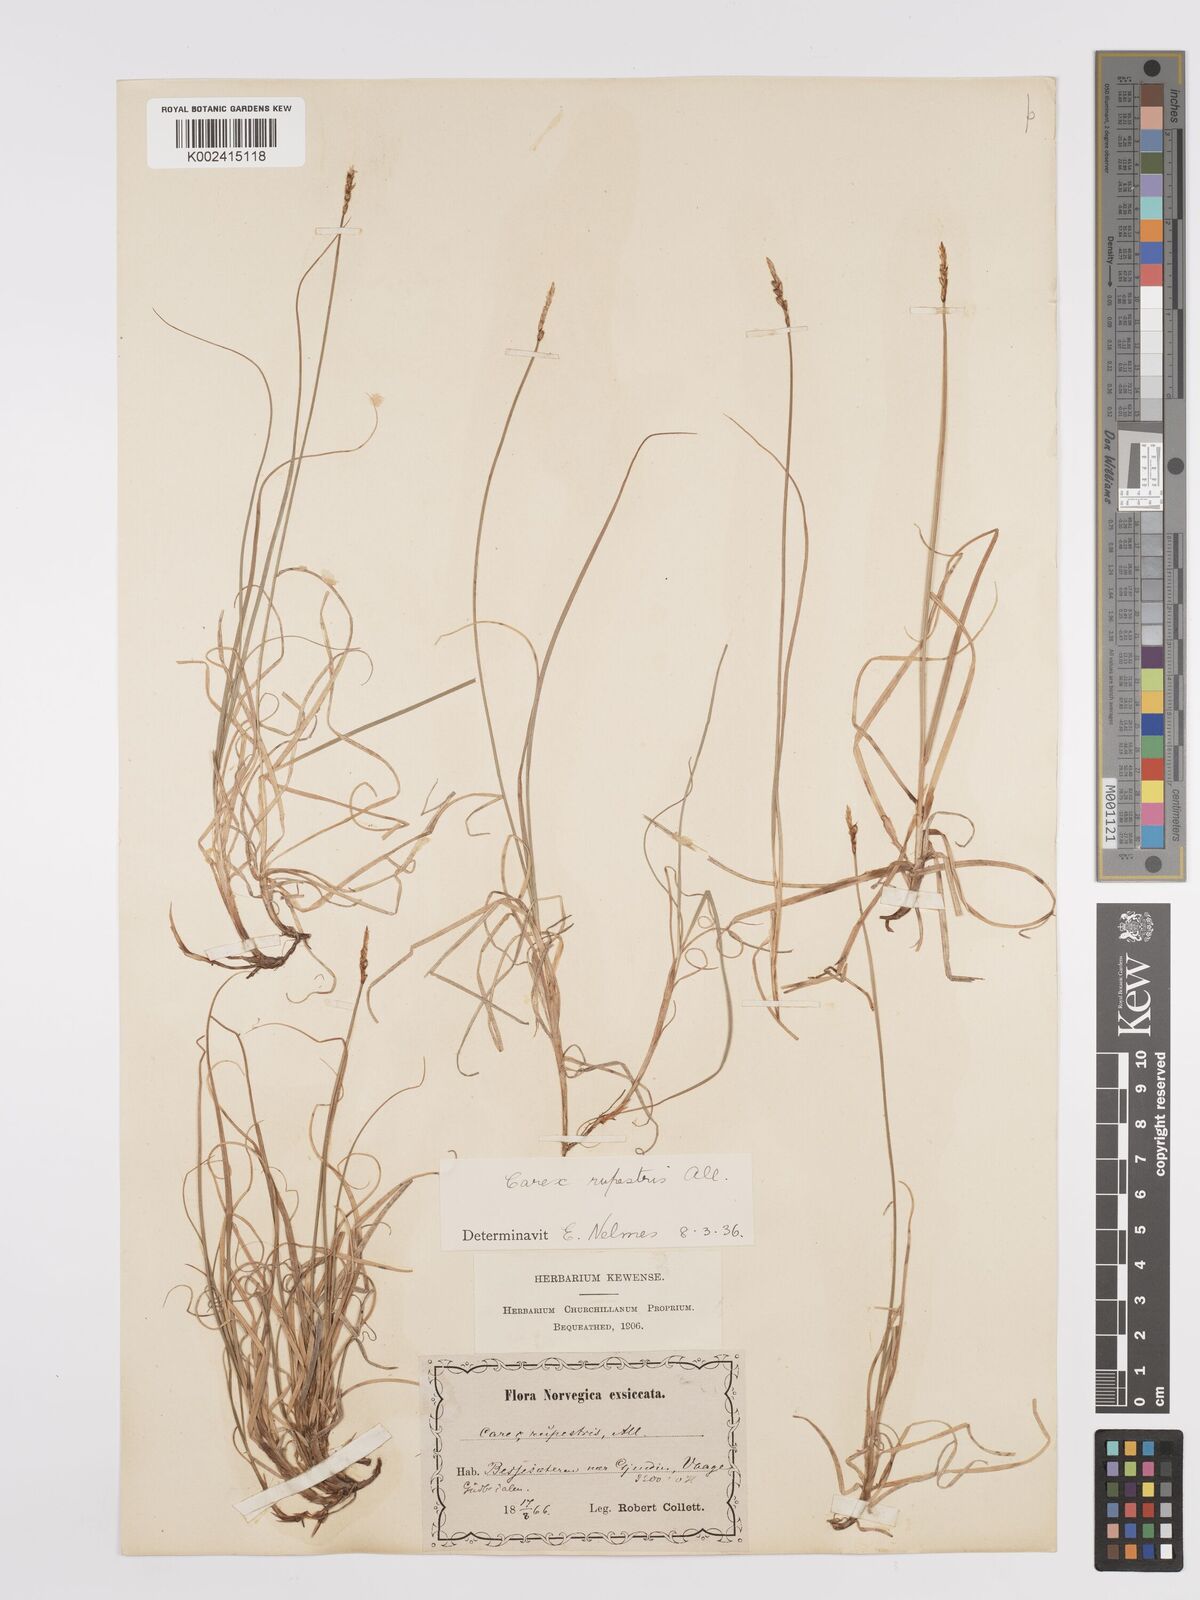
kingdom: Plantae
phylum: Tracheophyta
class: Liliopsida
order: Poales
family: Cyperaceae
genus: Carex
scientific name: Carex rupestris
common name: Rock sedge
